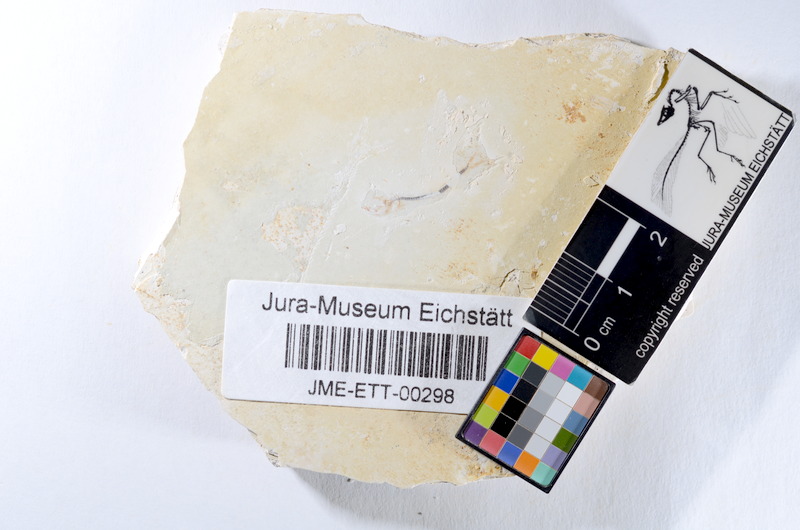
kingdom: Animalia
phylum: Chordata
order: Salmoniformes
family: Orthogonikleithridae
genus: Orthogonikleithrus
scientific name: Orthogonikleithrus hoelli
